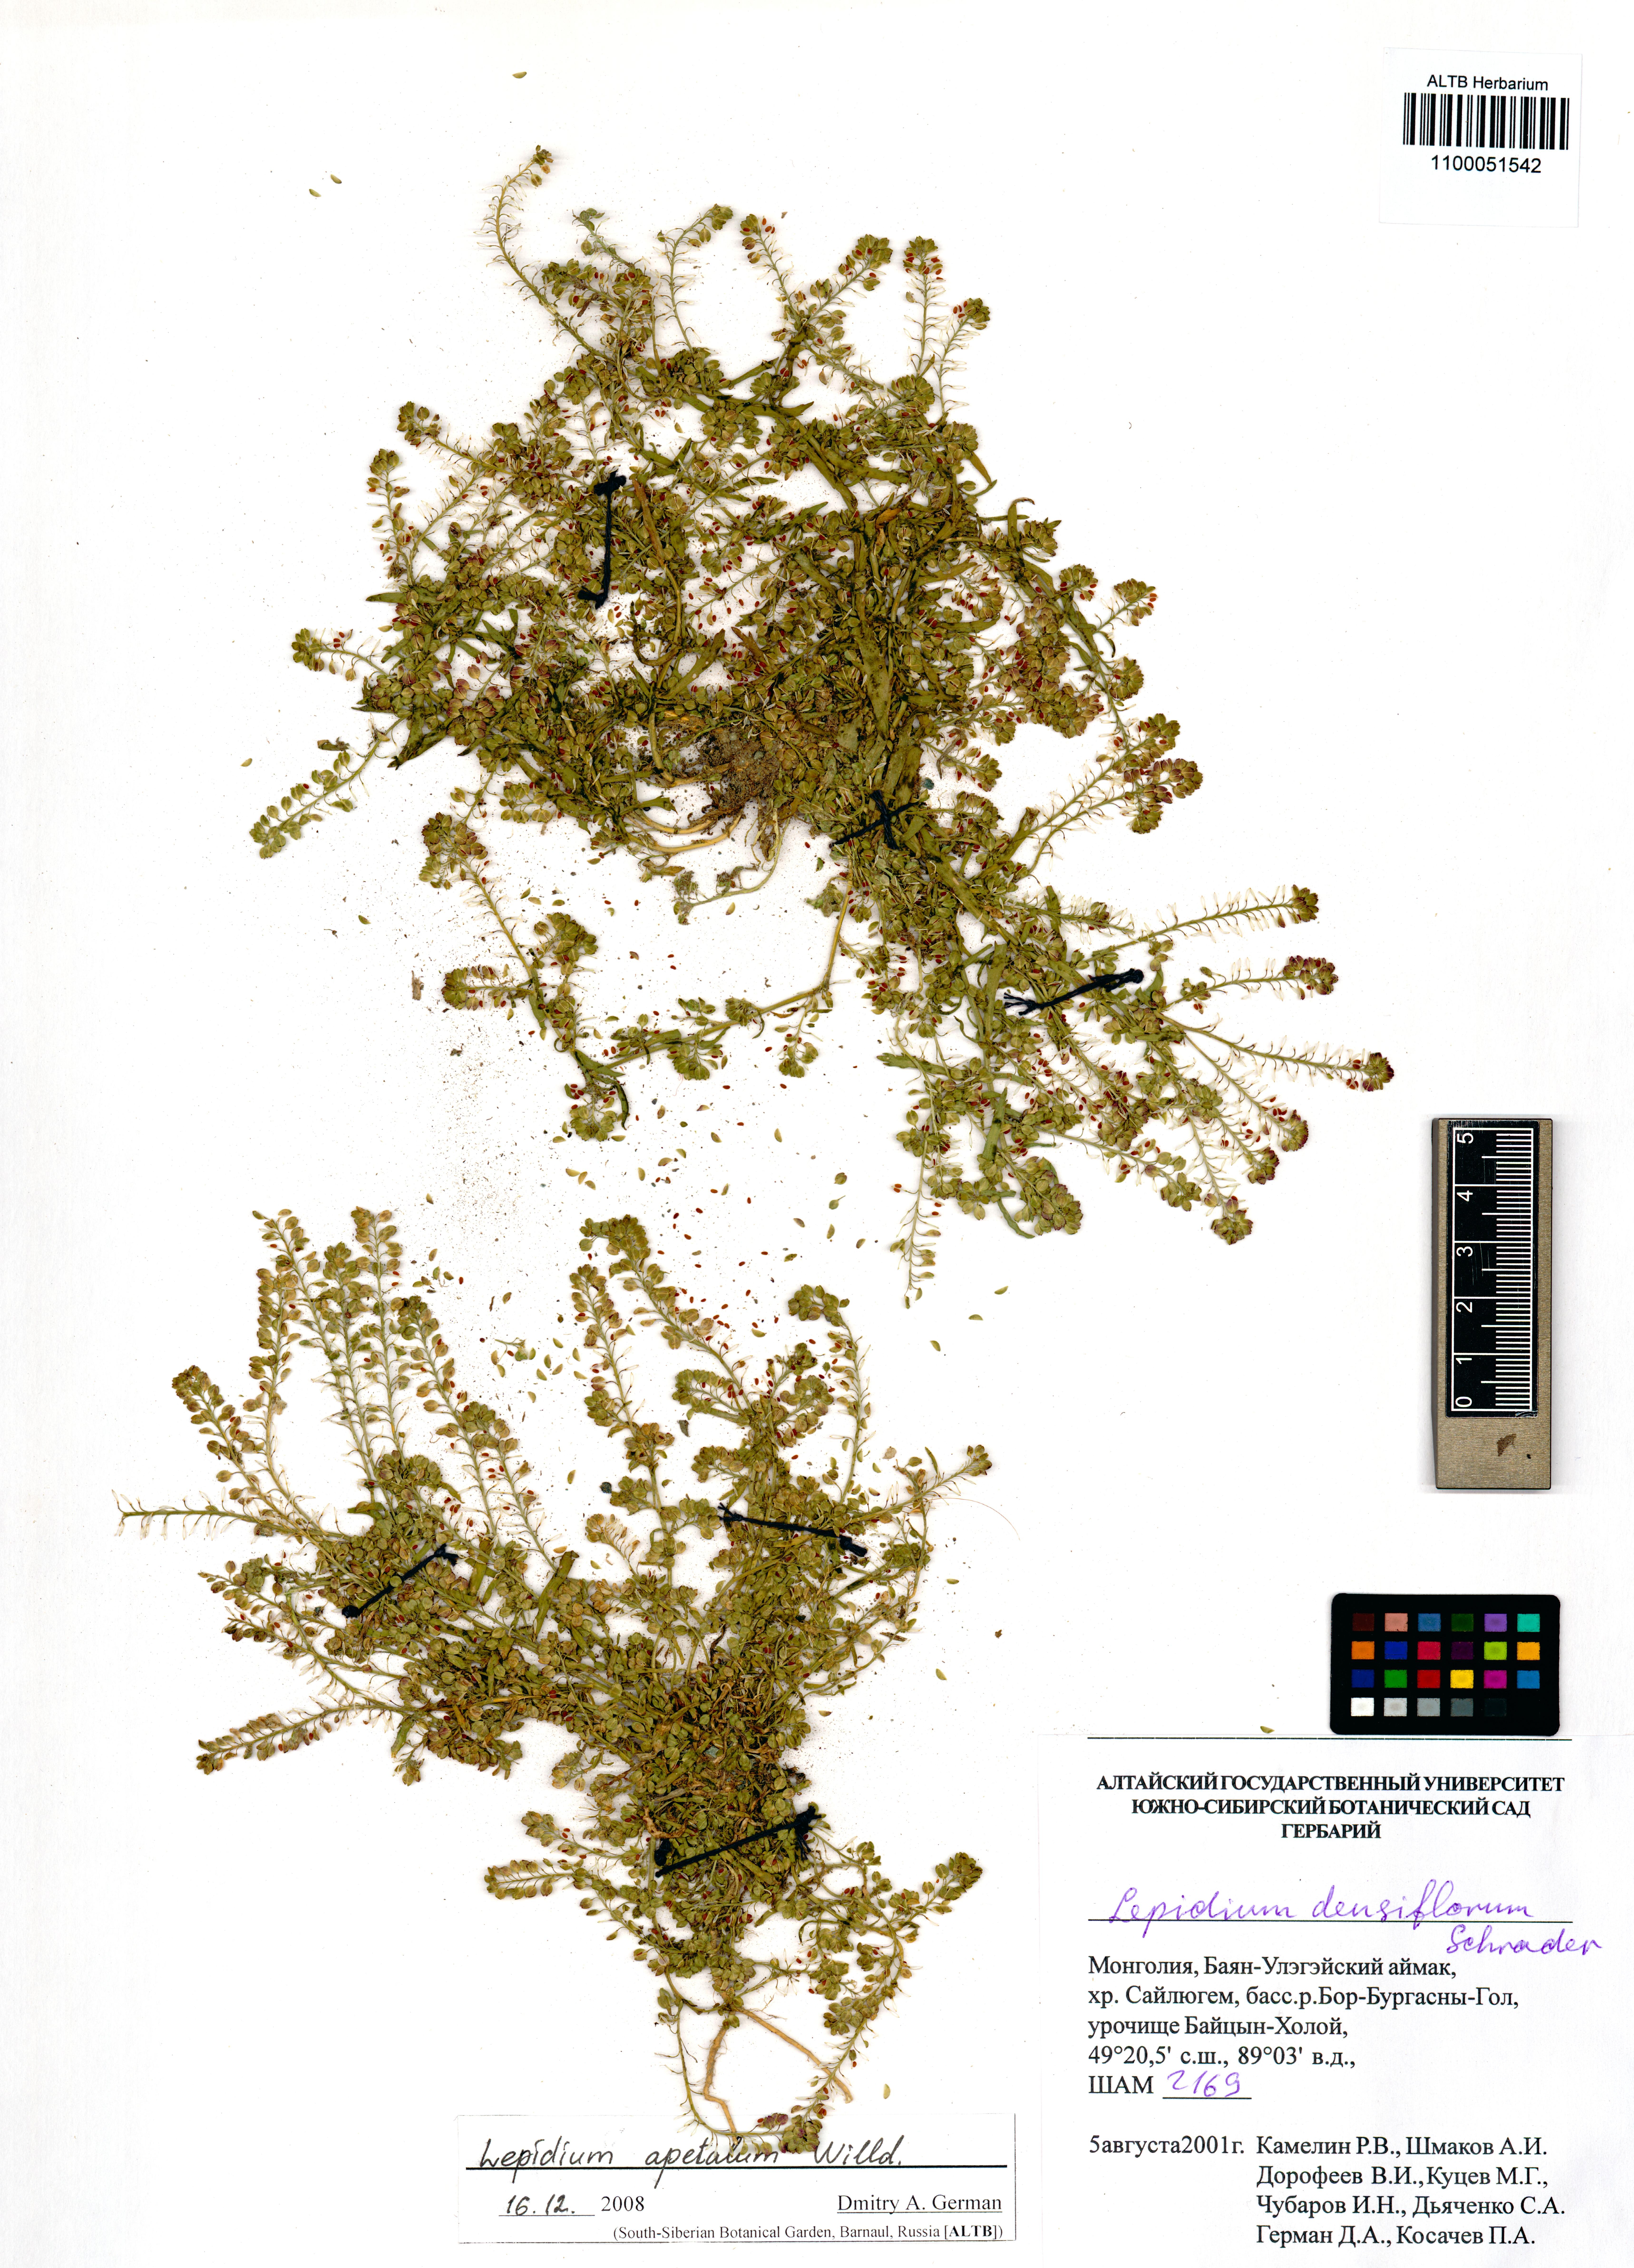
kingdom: Plantae
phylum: Tracheophyta
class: Magnoliopsida
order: Brassicales
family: Brassicaceae
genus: Lepidium
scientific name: Lepidium apetalum
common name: Pepperweed
